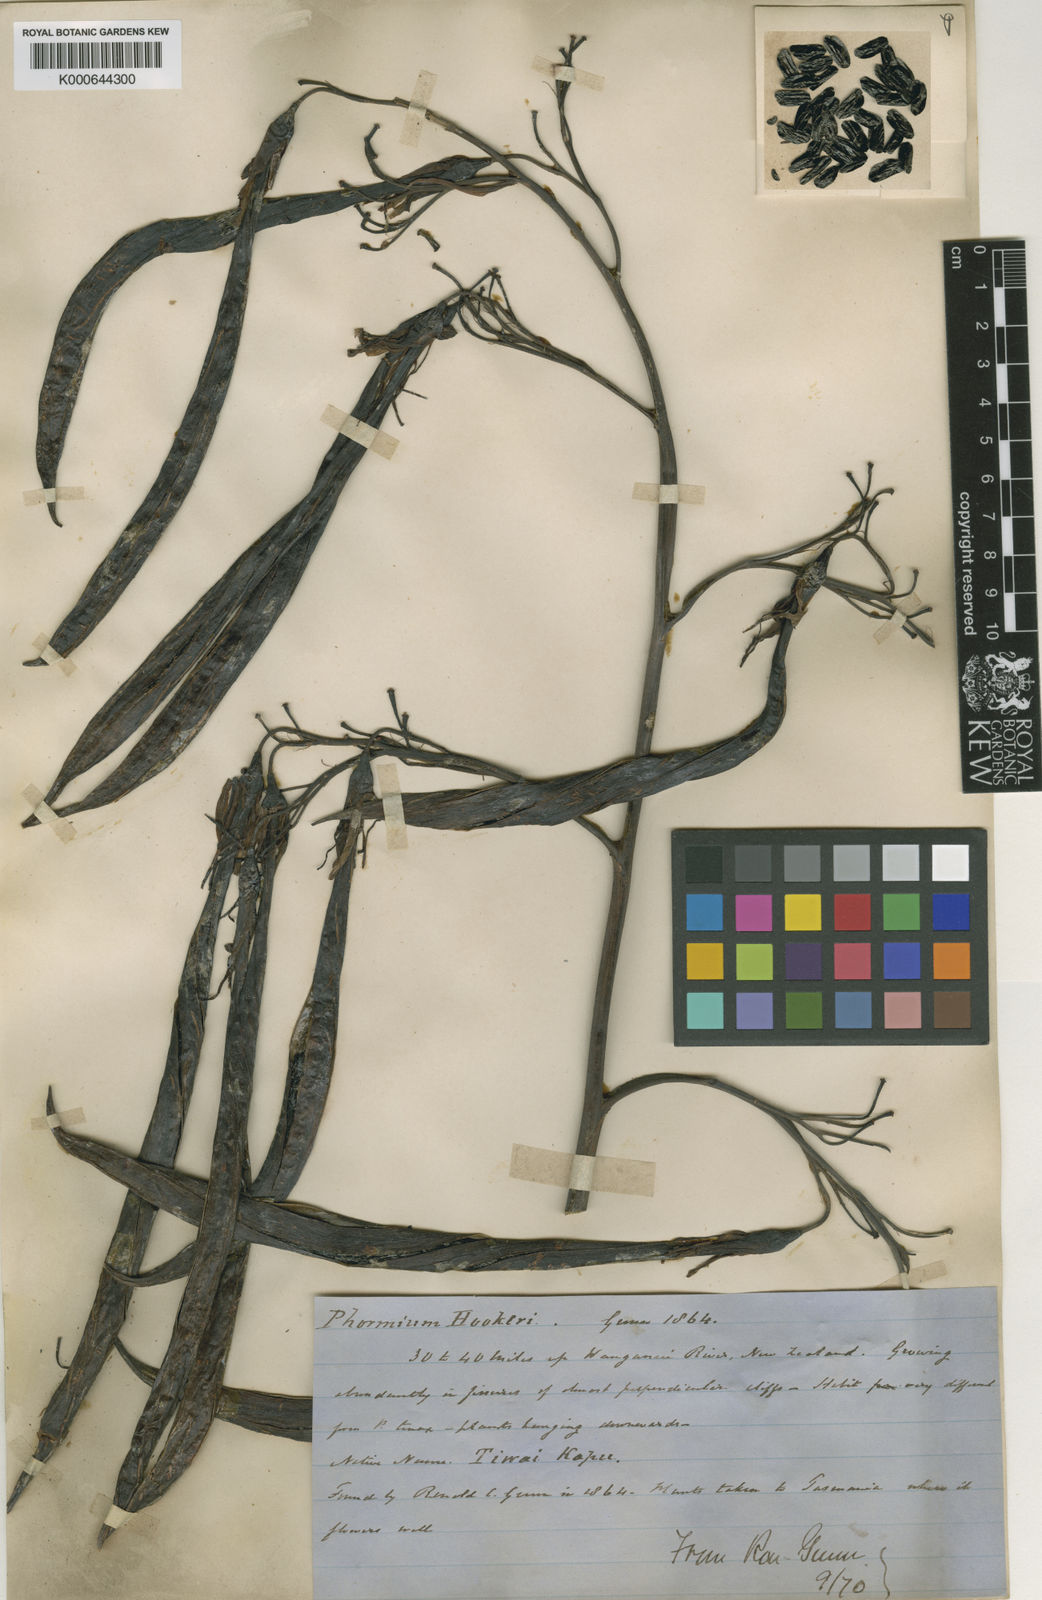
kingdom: Plantae
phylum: Tracheophyta
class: Liliopsida
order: Asparagales
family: Asphodelaceae
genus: Phormium
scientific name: Phormium
